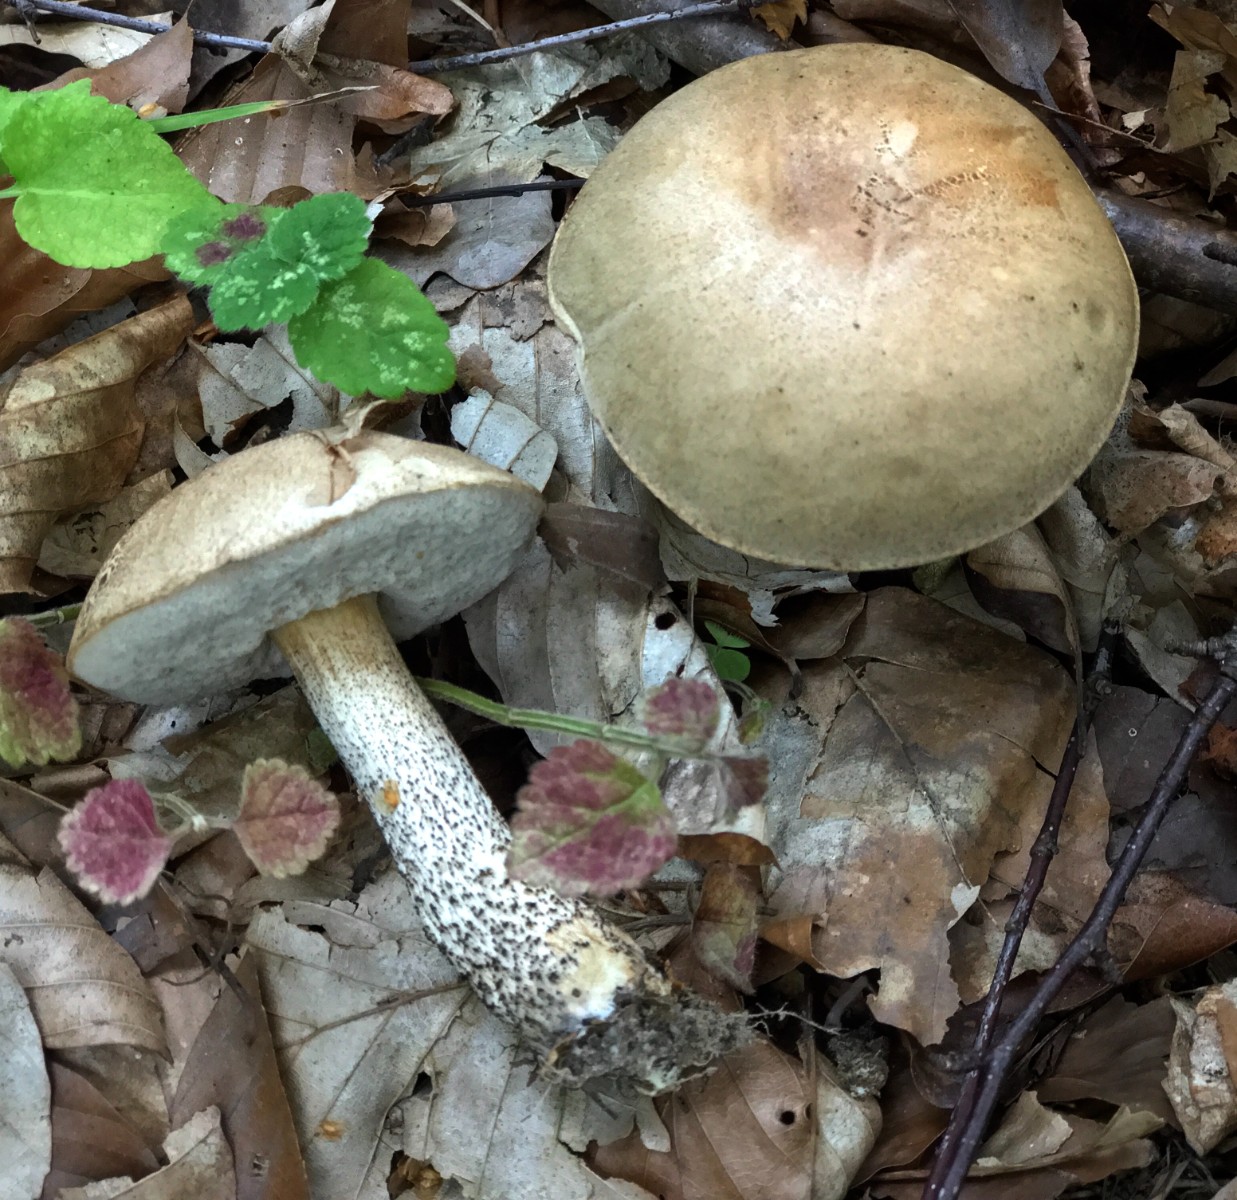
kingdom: Fungi
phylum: Basidiomycota
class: Agaricomycetes
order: Boletales
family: Boletaceae
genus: Leccinum
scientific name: Leccinum scabrum
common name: brun skælrørhat
